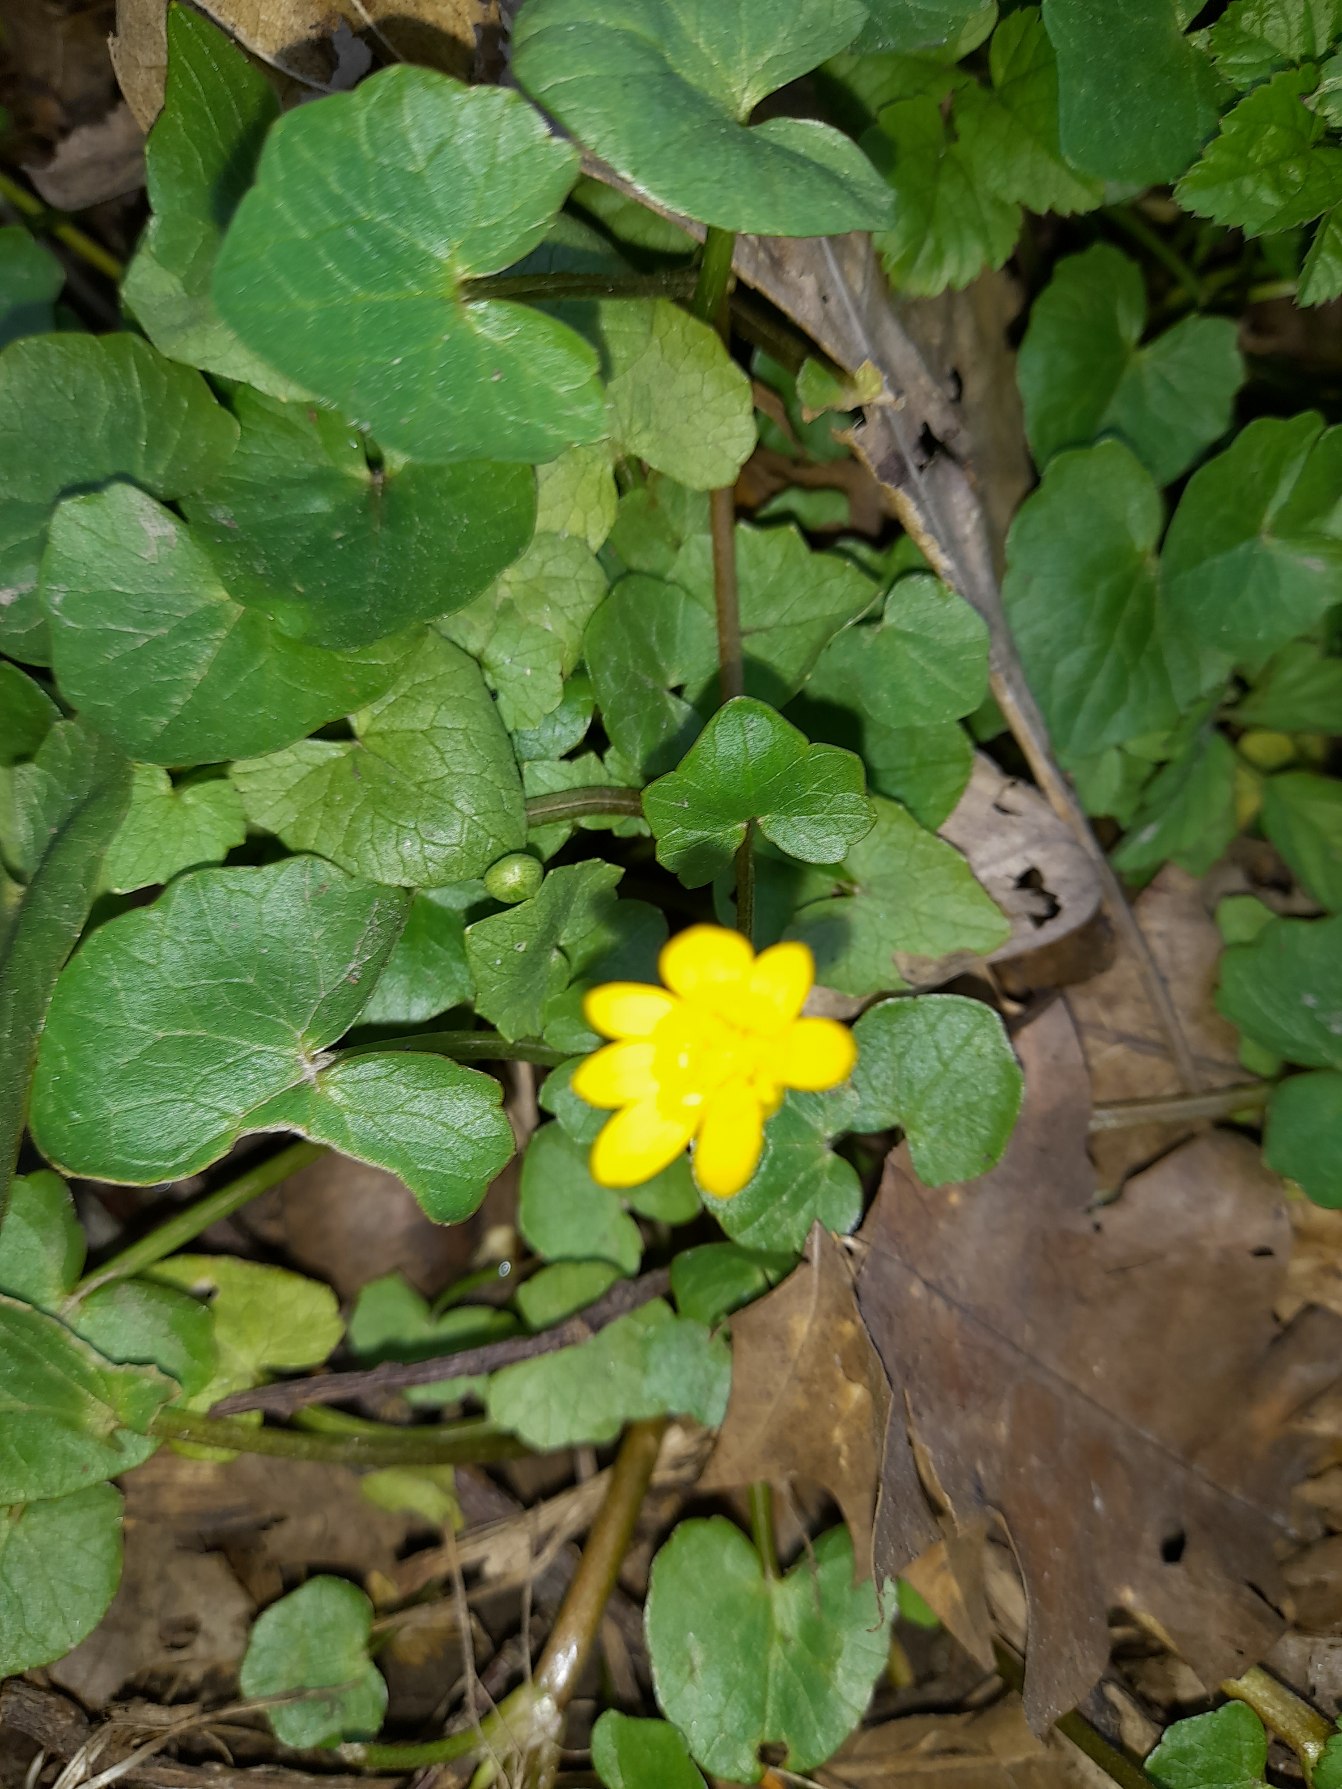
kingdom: Plantae
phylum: Tracheophyta
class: Magnoliopsida
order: Ranunculales
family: Ranunculaceae
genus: Ficaria
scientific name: Ficaria verna
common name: Vorterod
